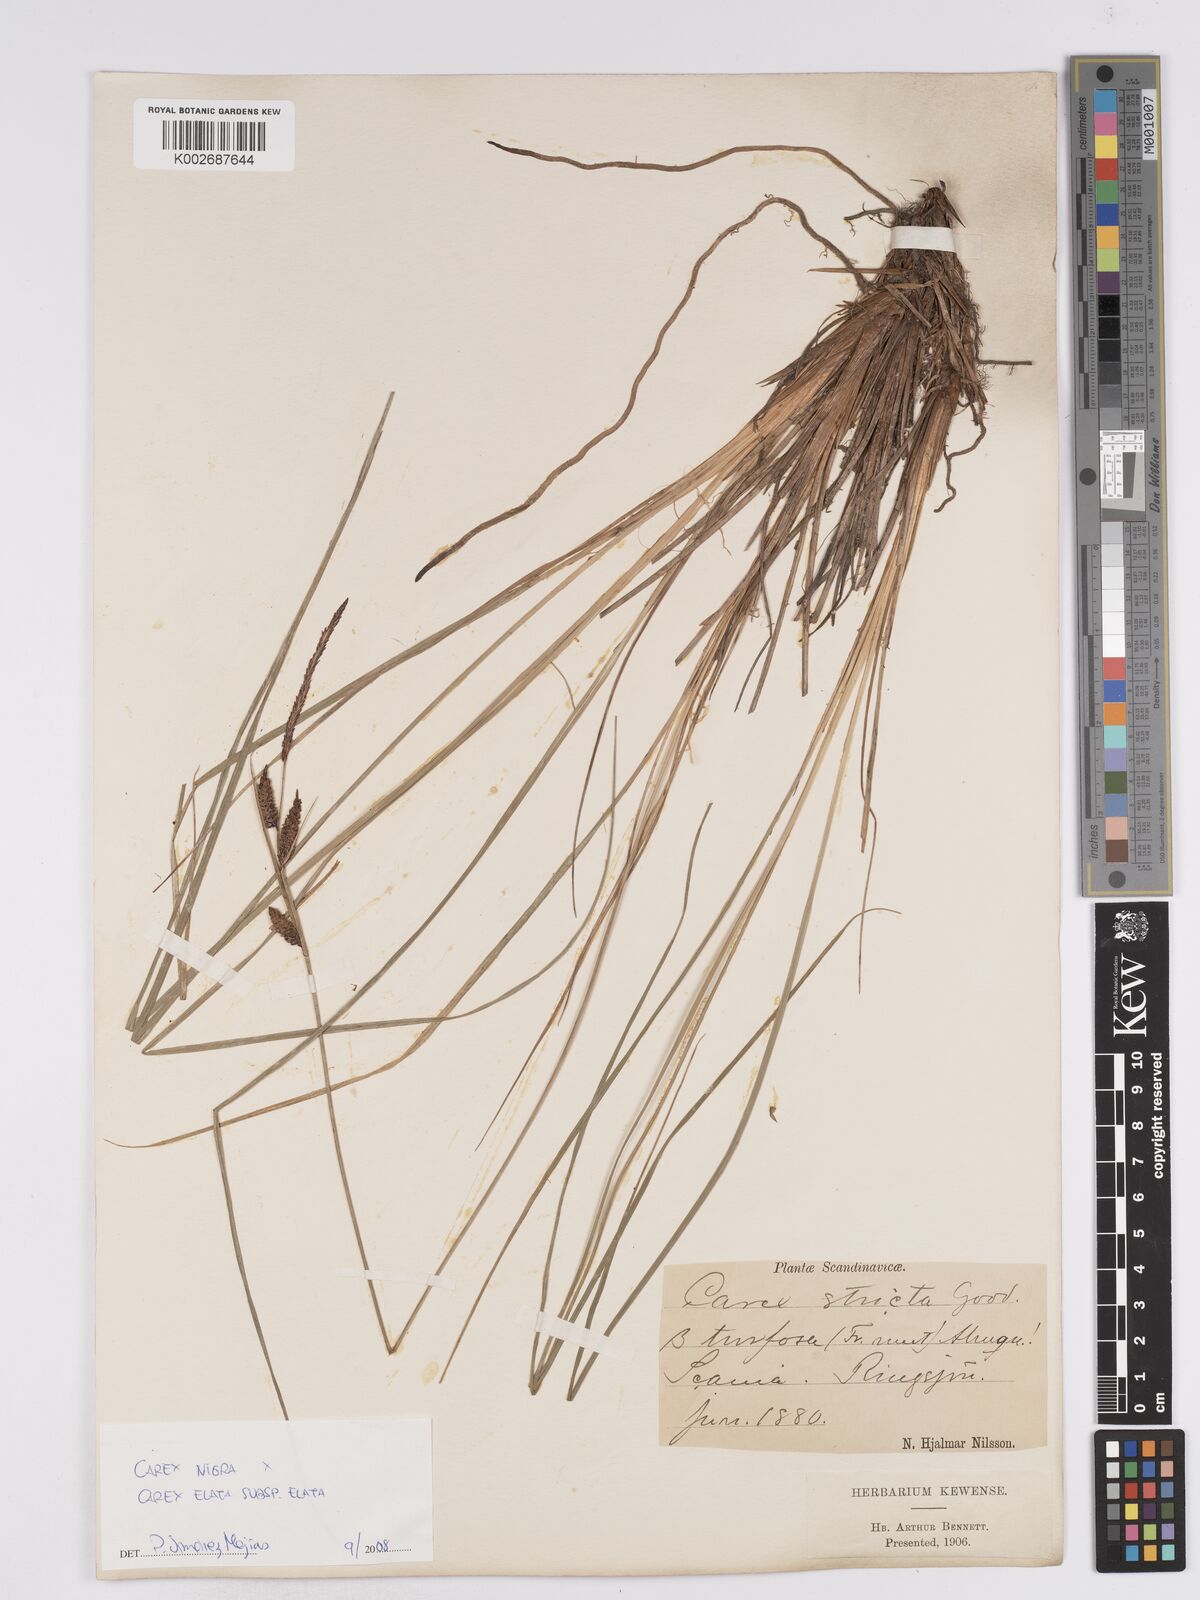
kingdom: Plantae
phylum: Tracheophyta
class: Liliopsida
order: Poales
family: Cyperaceae
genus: Carex
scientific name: Carex nigra
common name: Common sedge
